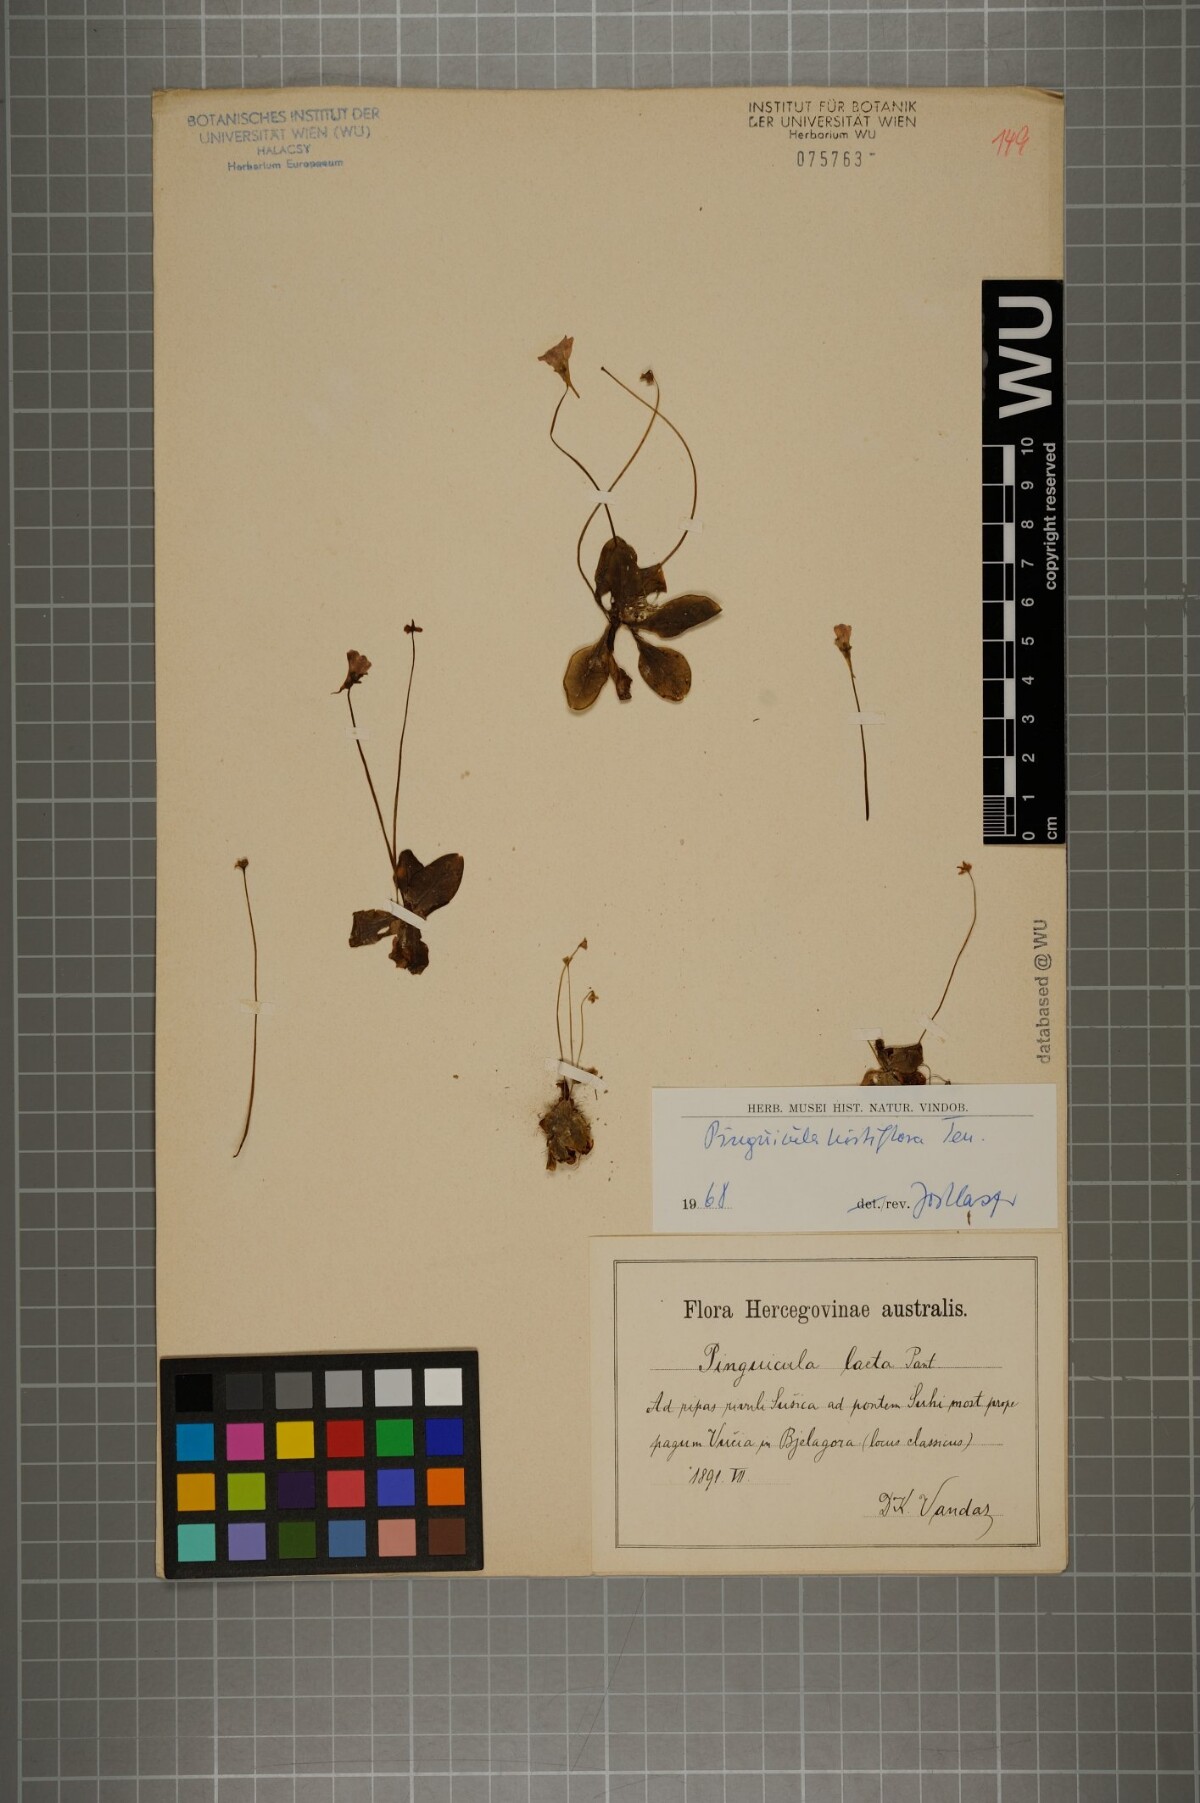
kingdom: Plantae
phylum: Tracheophyta
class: Magnoliopsida
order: Lamiales
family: Lentibulariaceae
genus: Pinguicula
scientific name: Pinguicula crystallina
